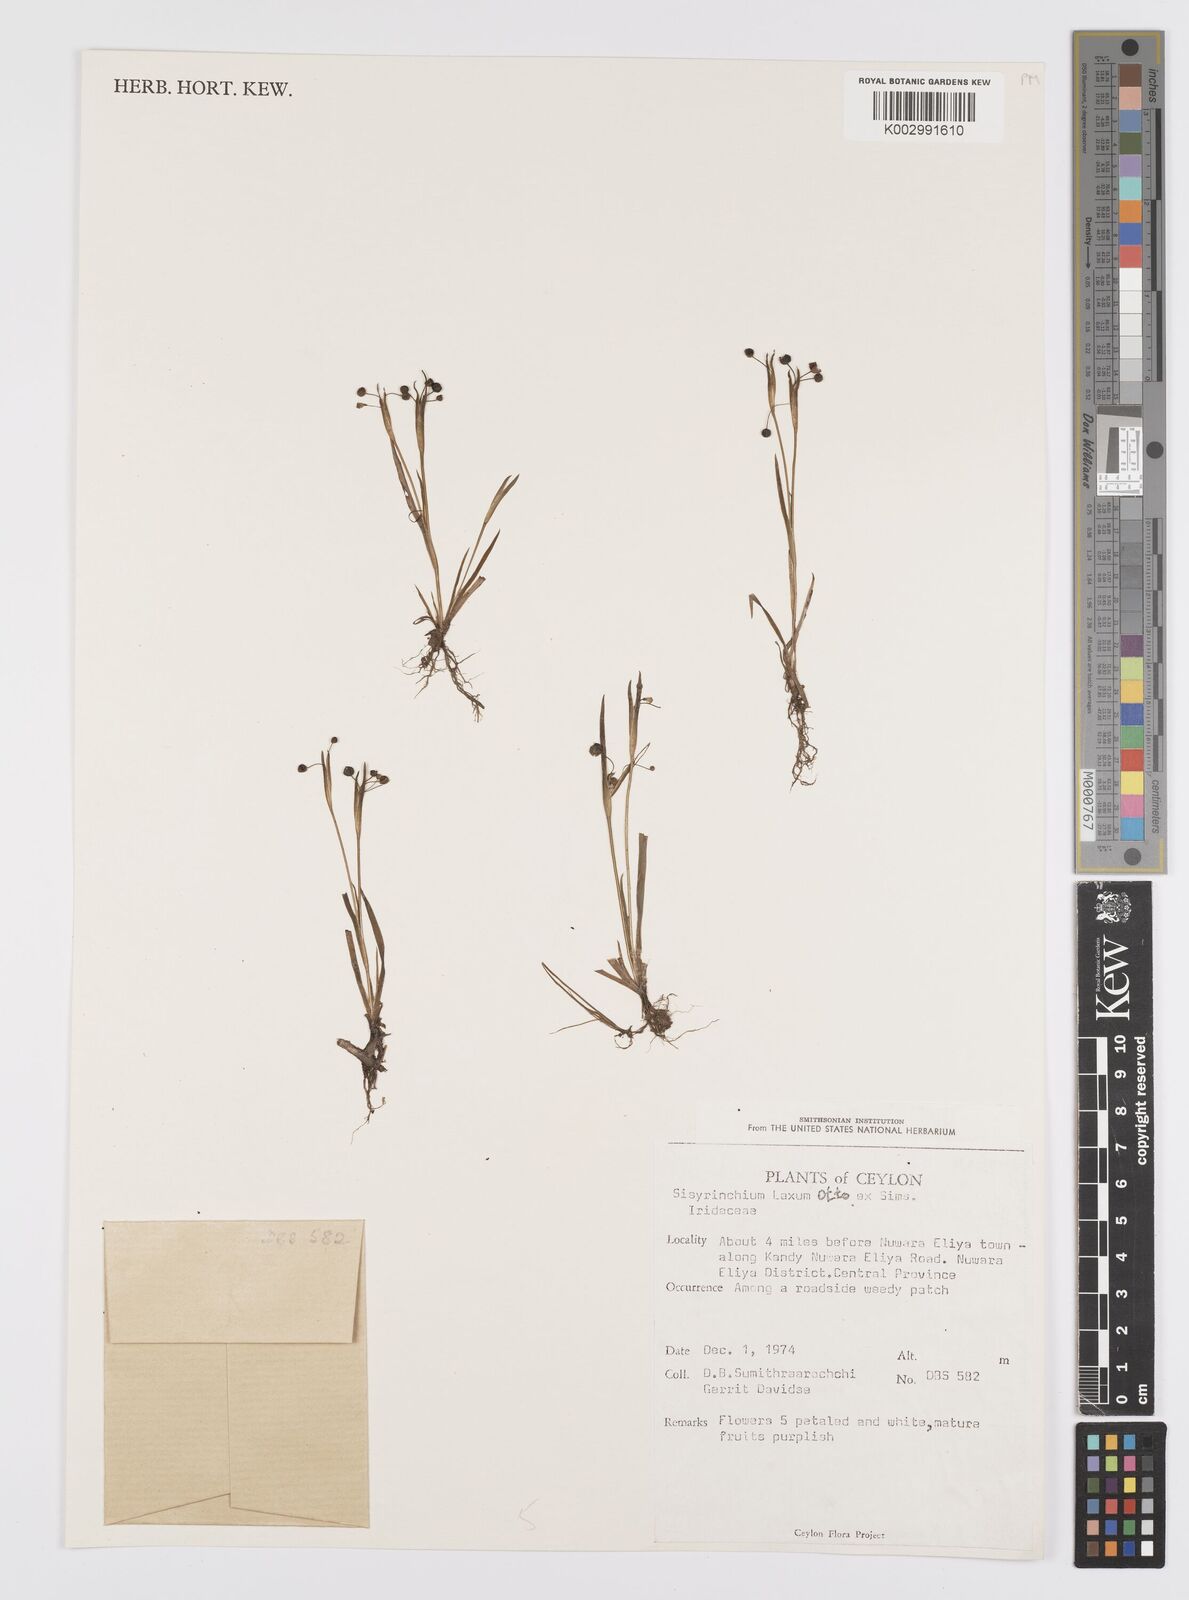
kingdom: Plantae
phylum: Tracheophyta
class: Liliopsida
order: Asparagales
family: Iridaceae
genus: Sisyrinchium
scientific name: Sisyrinchium laxum
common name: Veined yellow-eyed-grass
